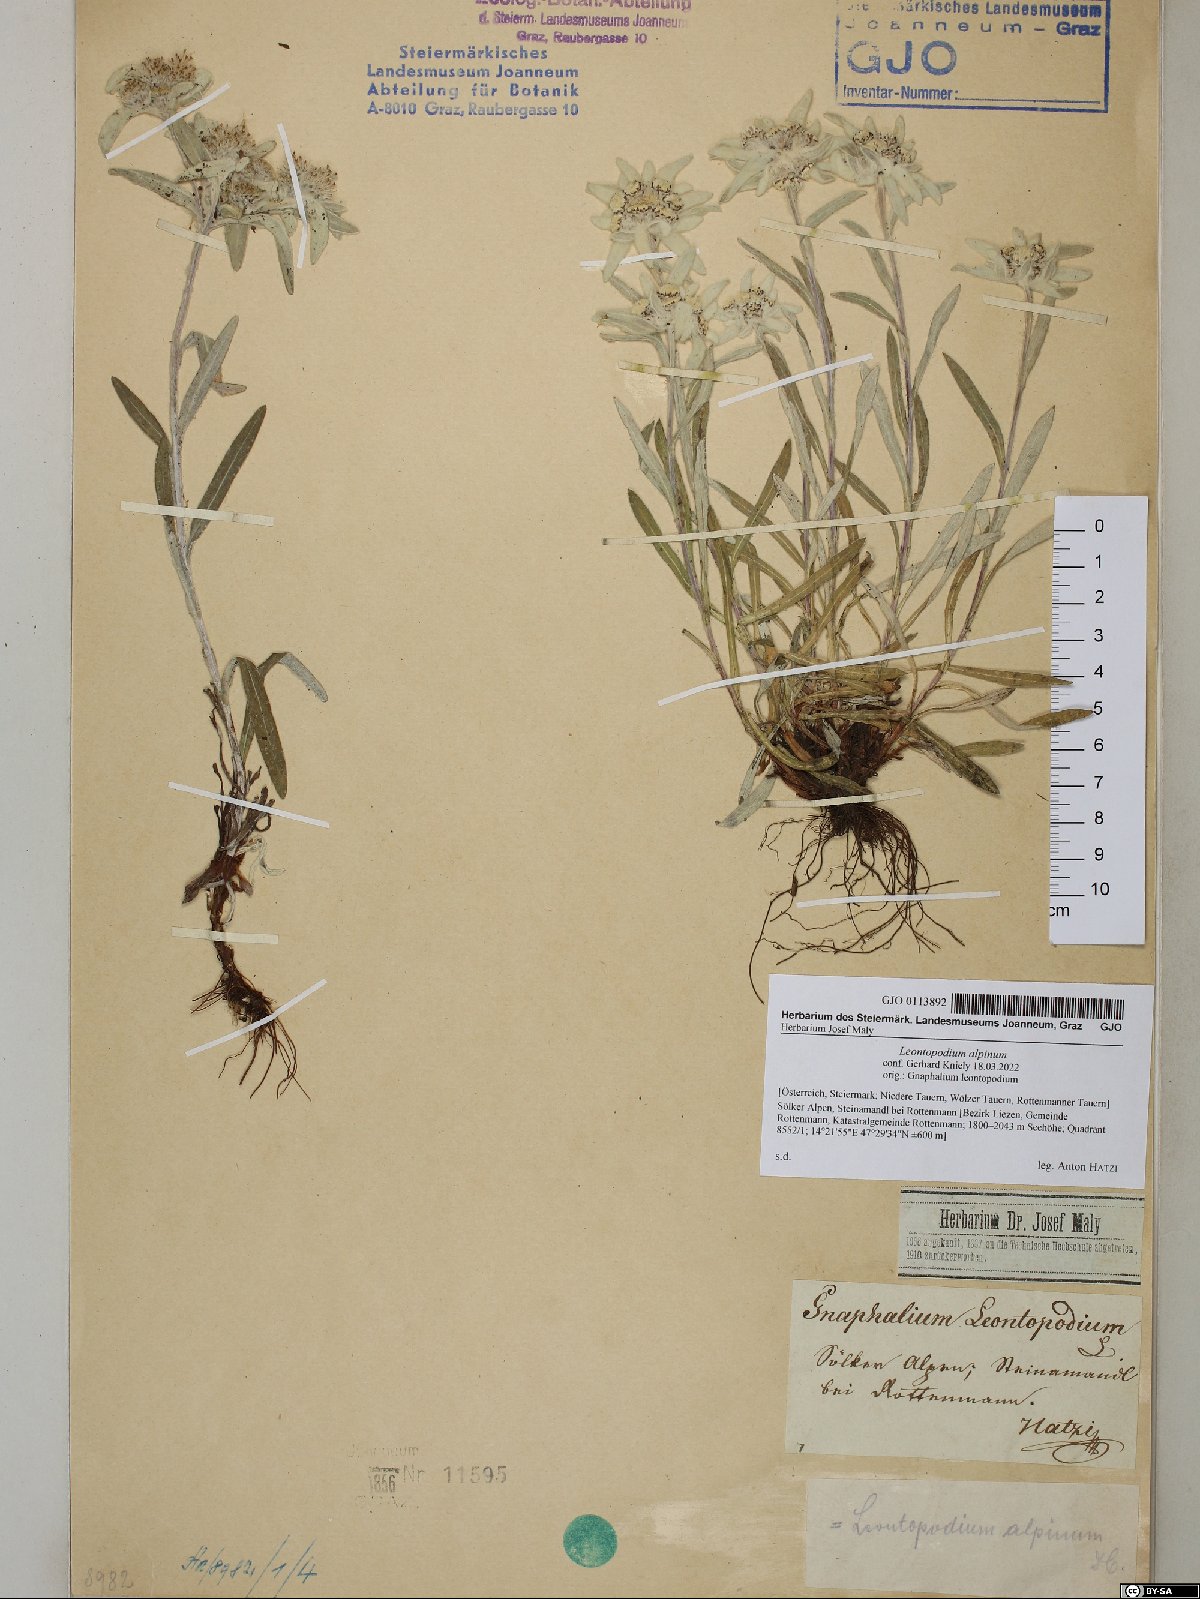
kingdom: Plantae
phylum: Tracheophyta
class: Magnoliopsida
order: Asterales
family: Asteraceae
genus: Leontopodium
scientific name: Leontopodium nivale
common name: Edelweiss
